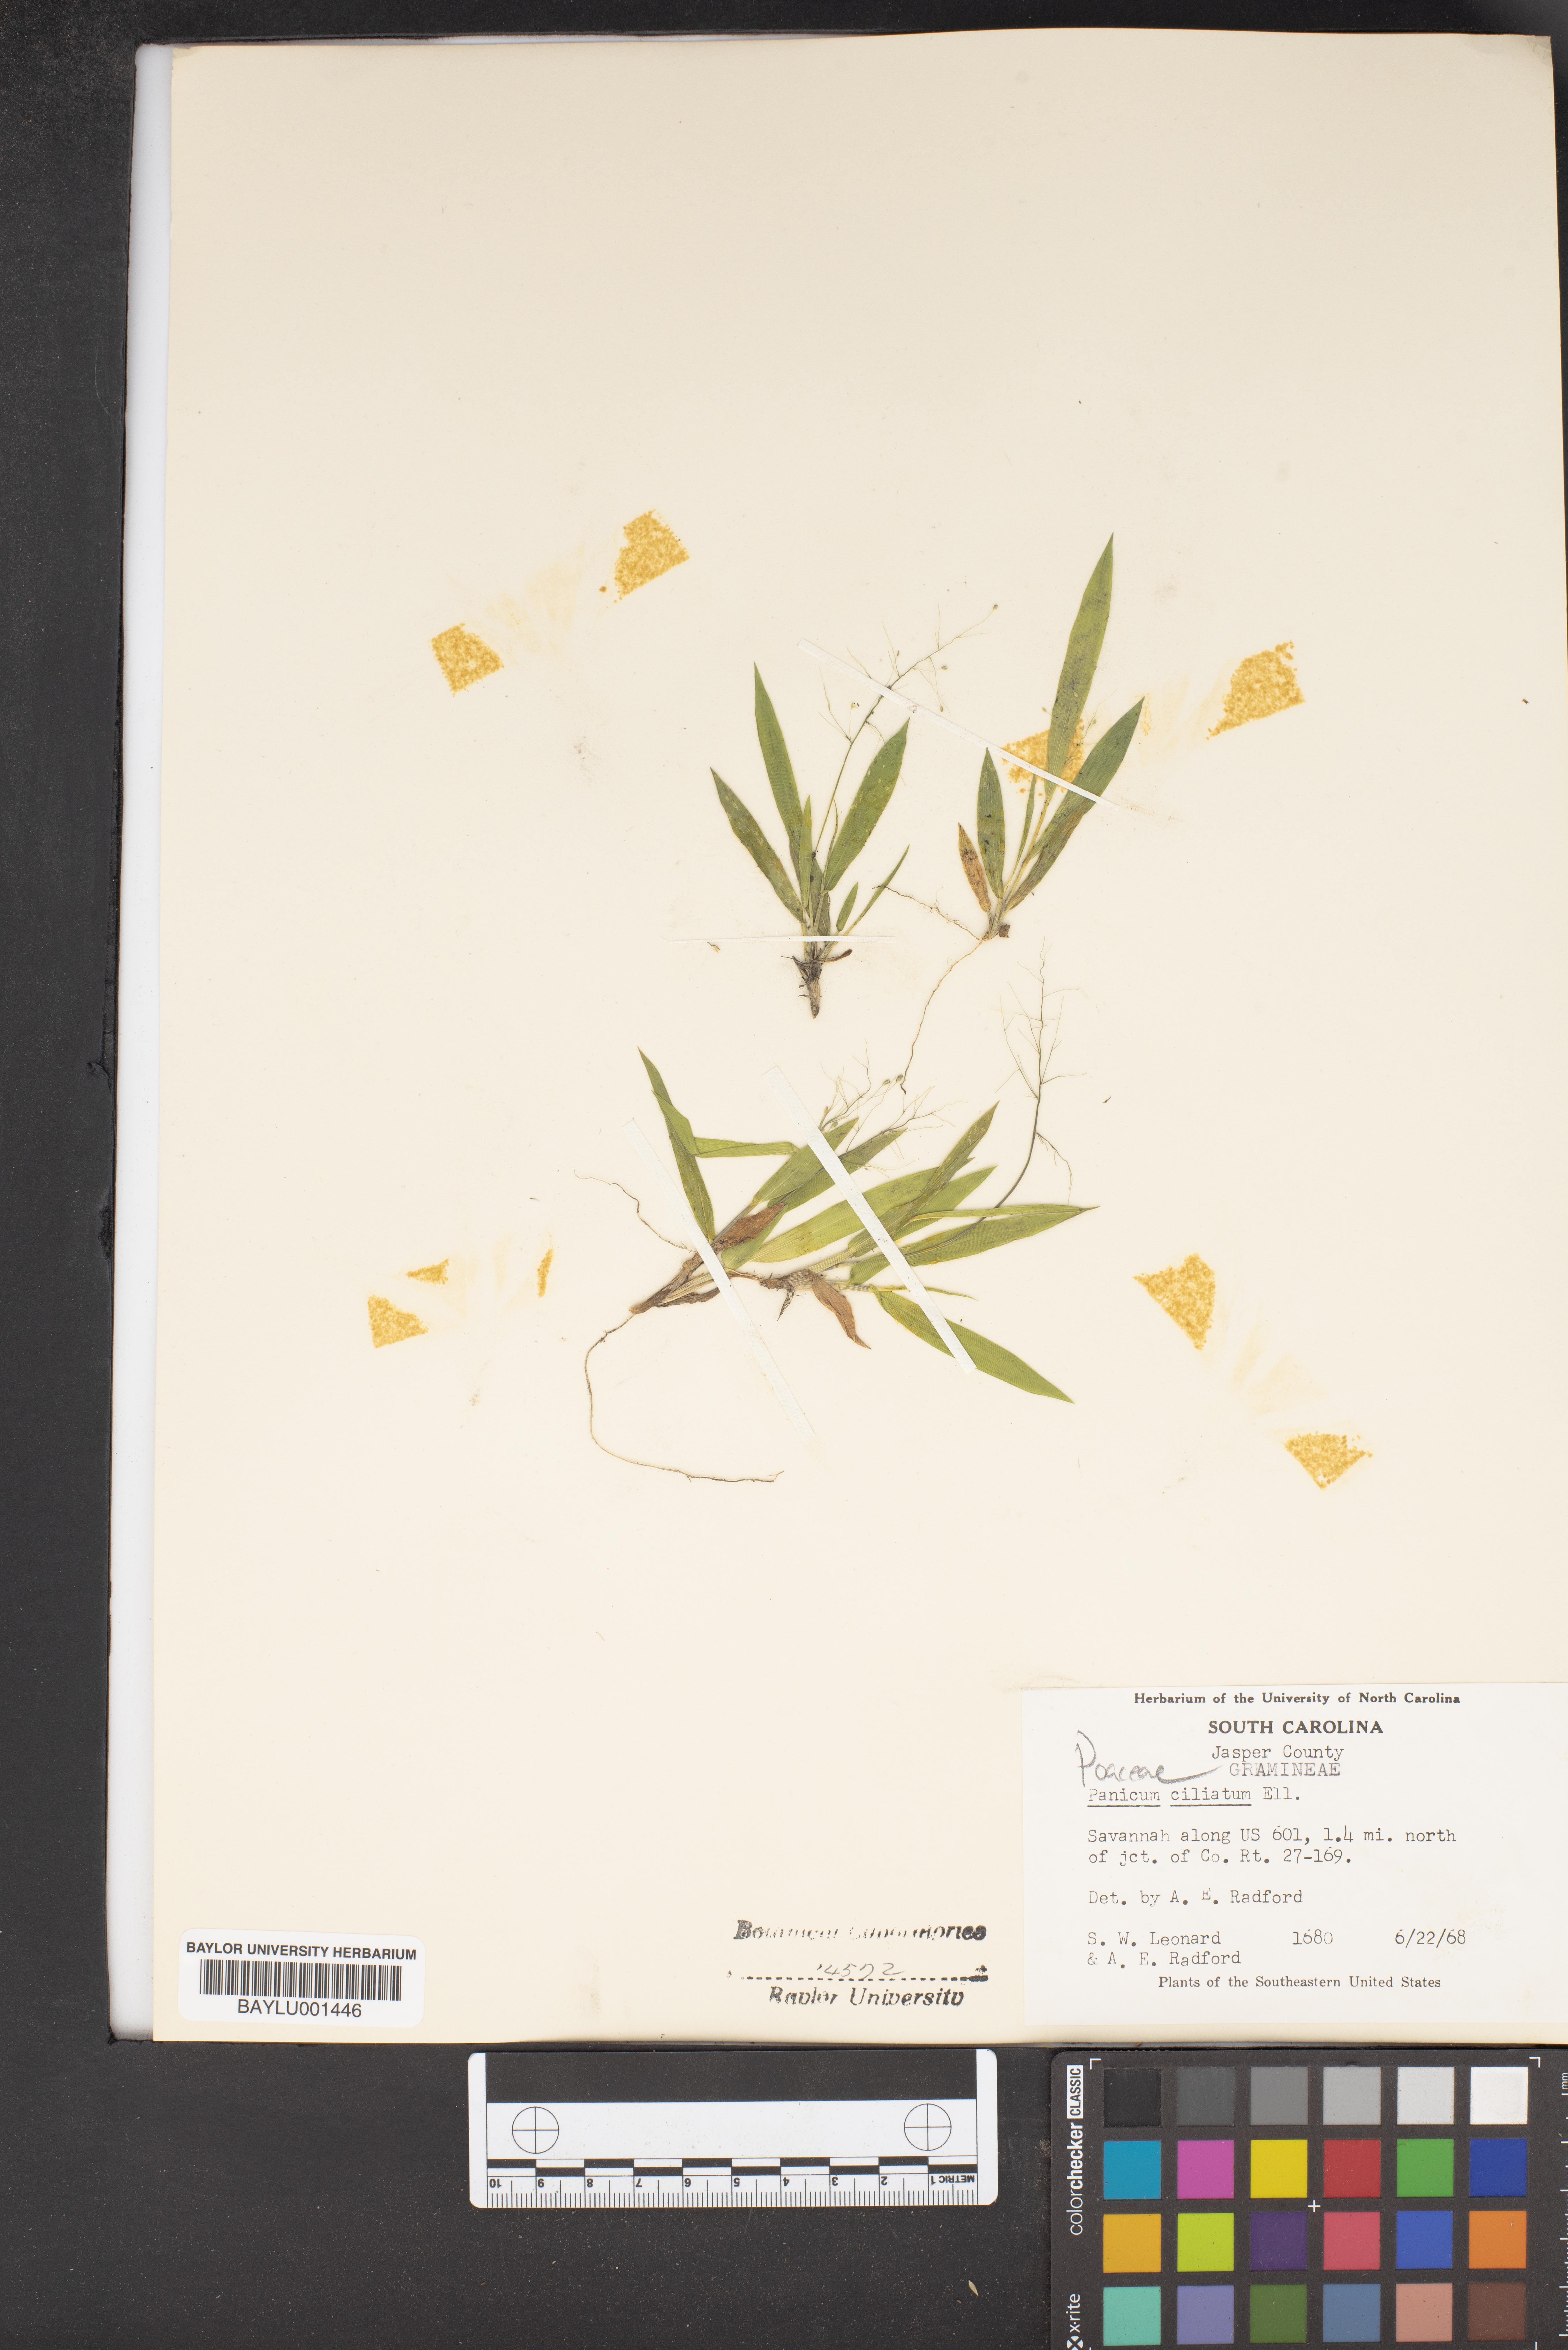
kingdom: Plantae
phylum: Tracheophyta
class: Liliopsida
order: Poales
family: Poaceae
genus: Dichanthelium
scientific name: Dichanthelium strigosum
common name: Cushion-tuft panic grass
